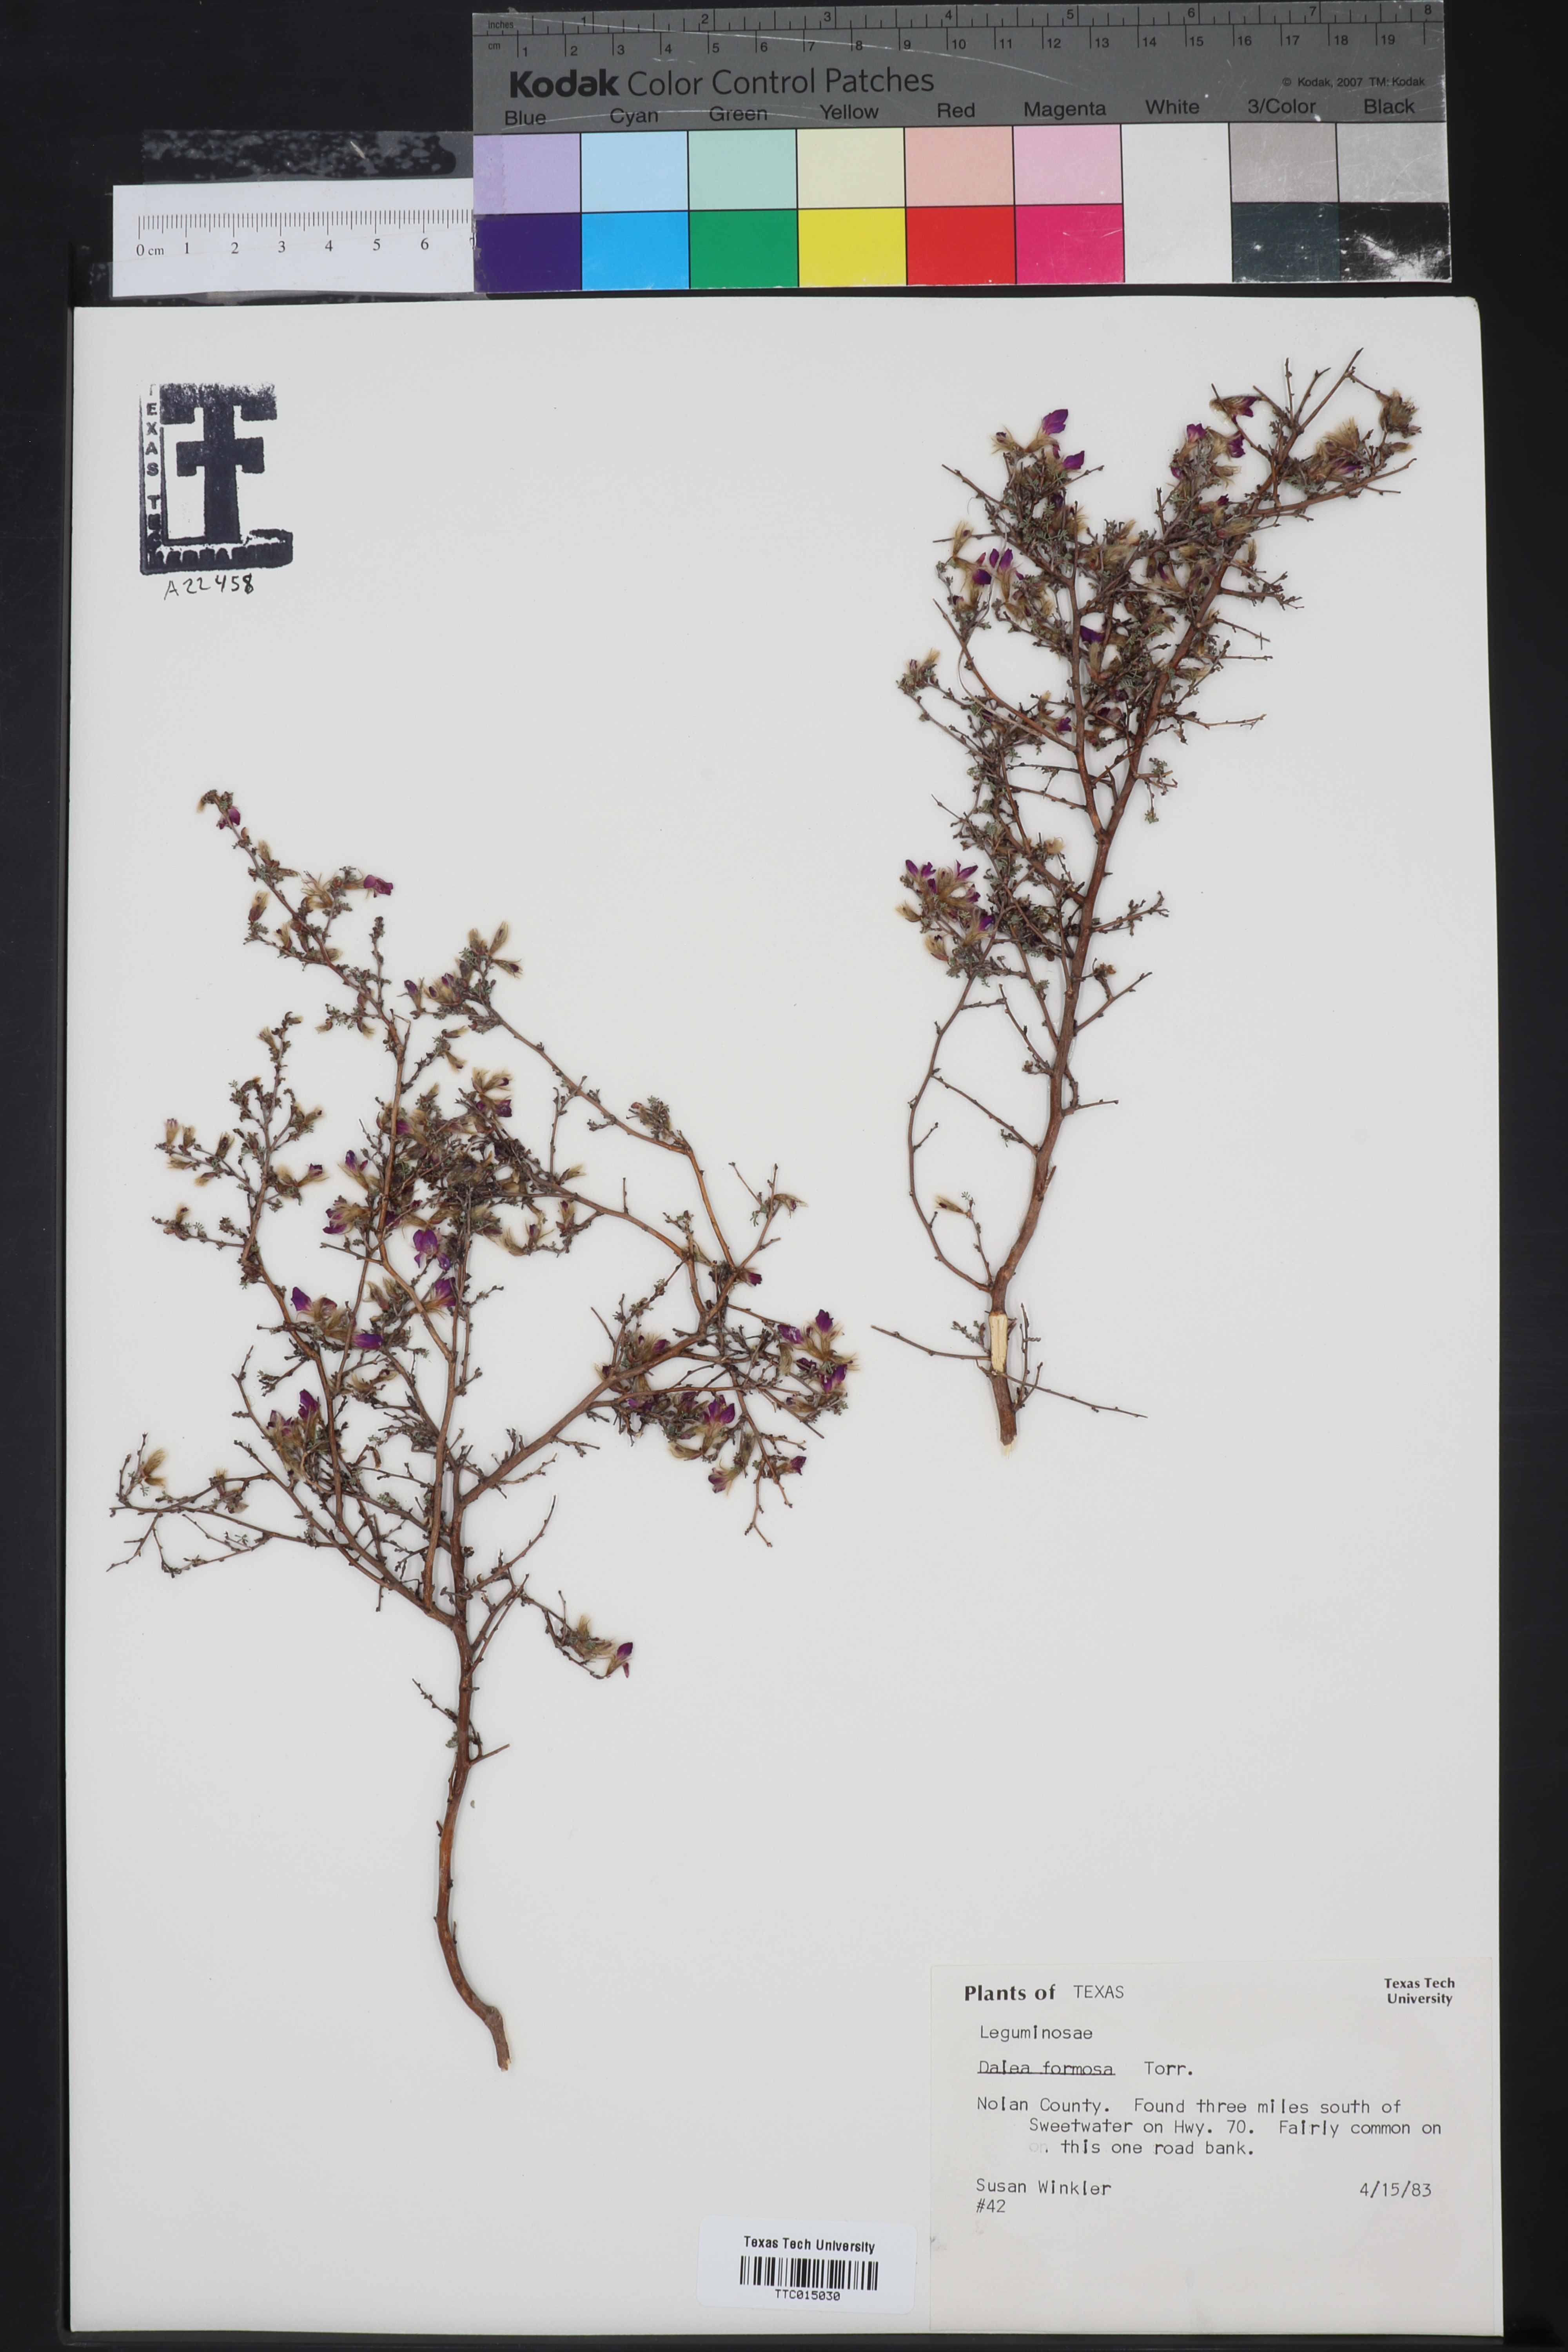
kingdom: Plantae
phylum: Tracheophyta
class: Magnoliopsida
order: Fabales
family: Fabaceae
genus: Dalea
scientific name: Dalea formosa
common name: Feather-plume dalea
